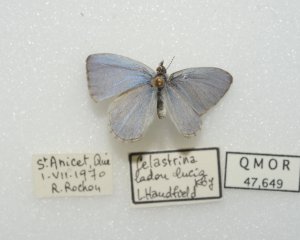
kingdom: Animalia
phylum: Arthropoda
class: Insecta
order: Lepidoptera
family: Lycaenidae
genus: Celastrina
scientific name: Celastrina lucia
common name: Northern Spring Azure
